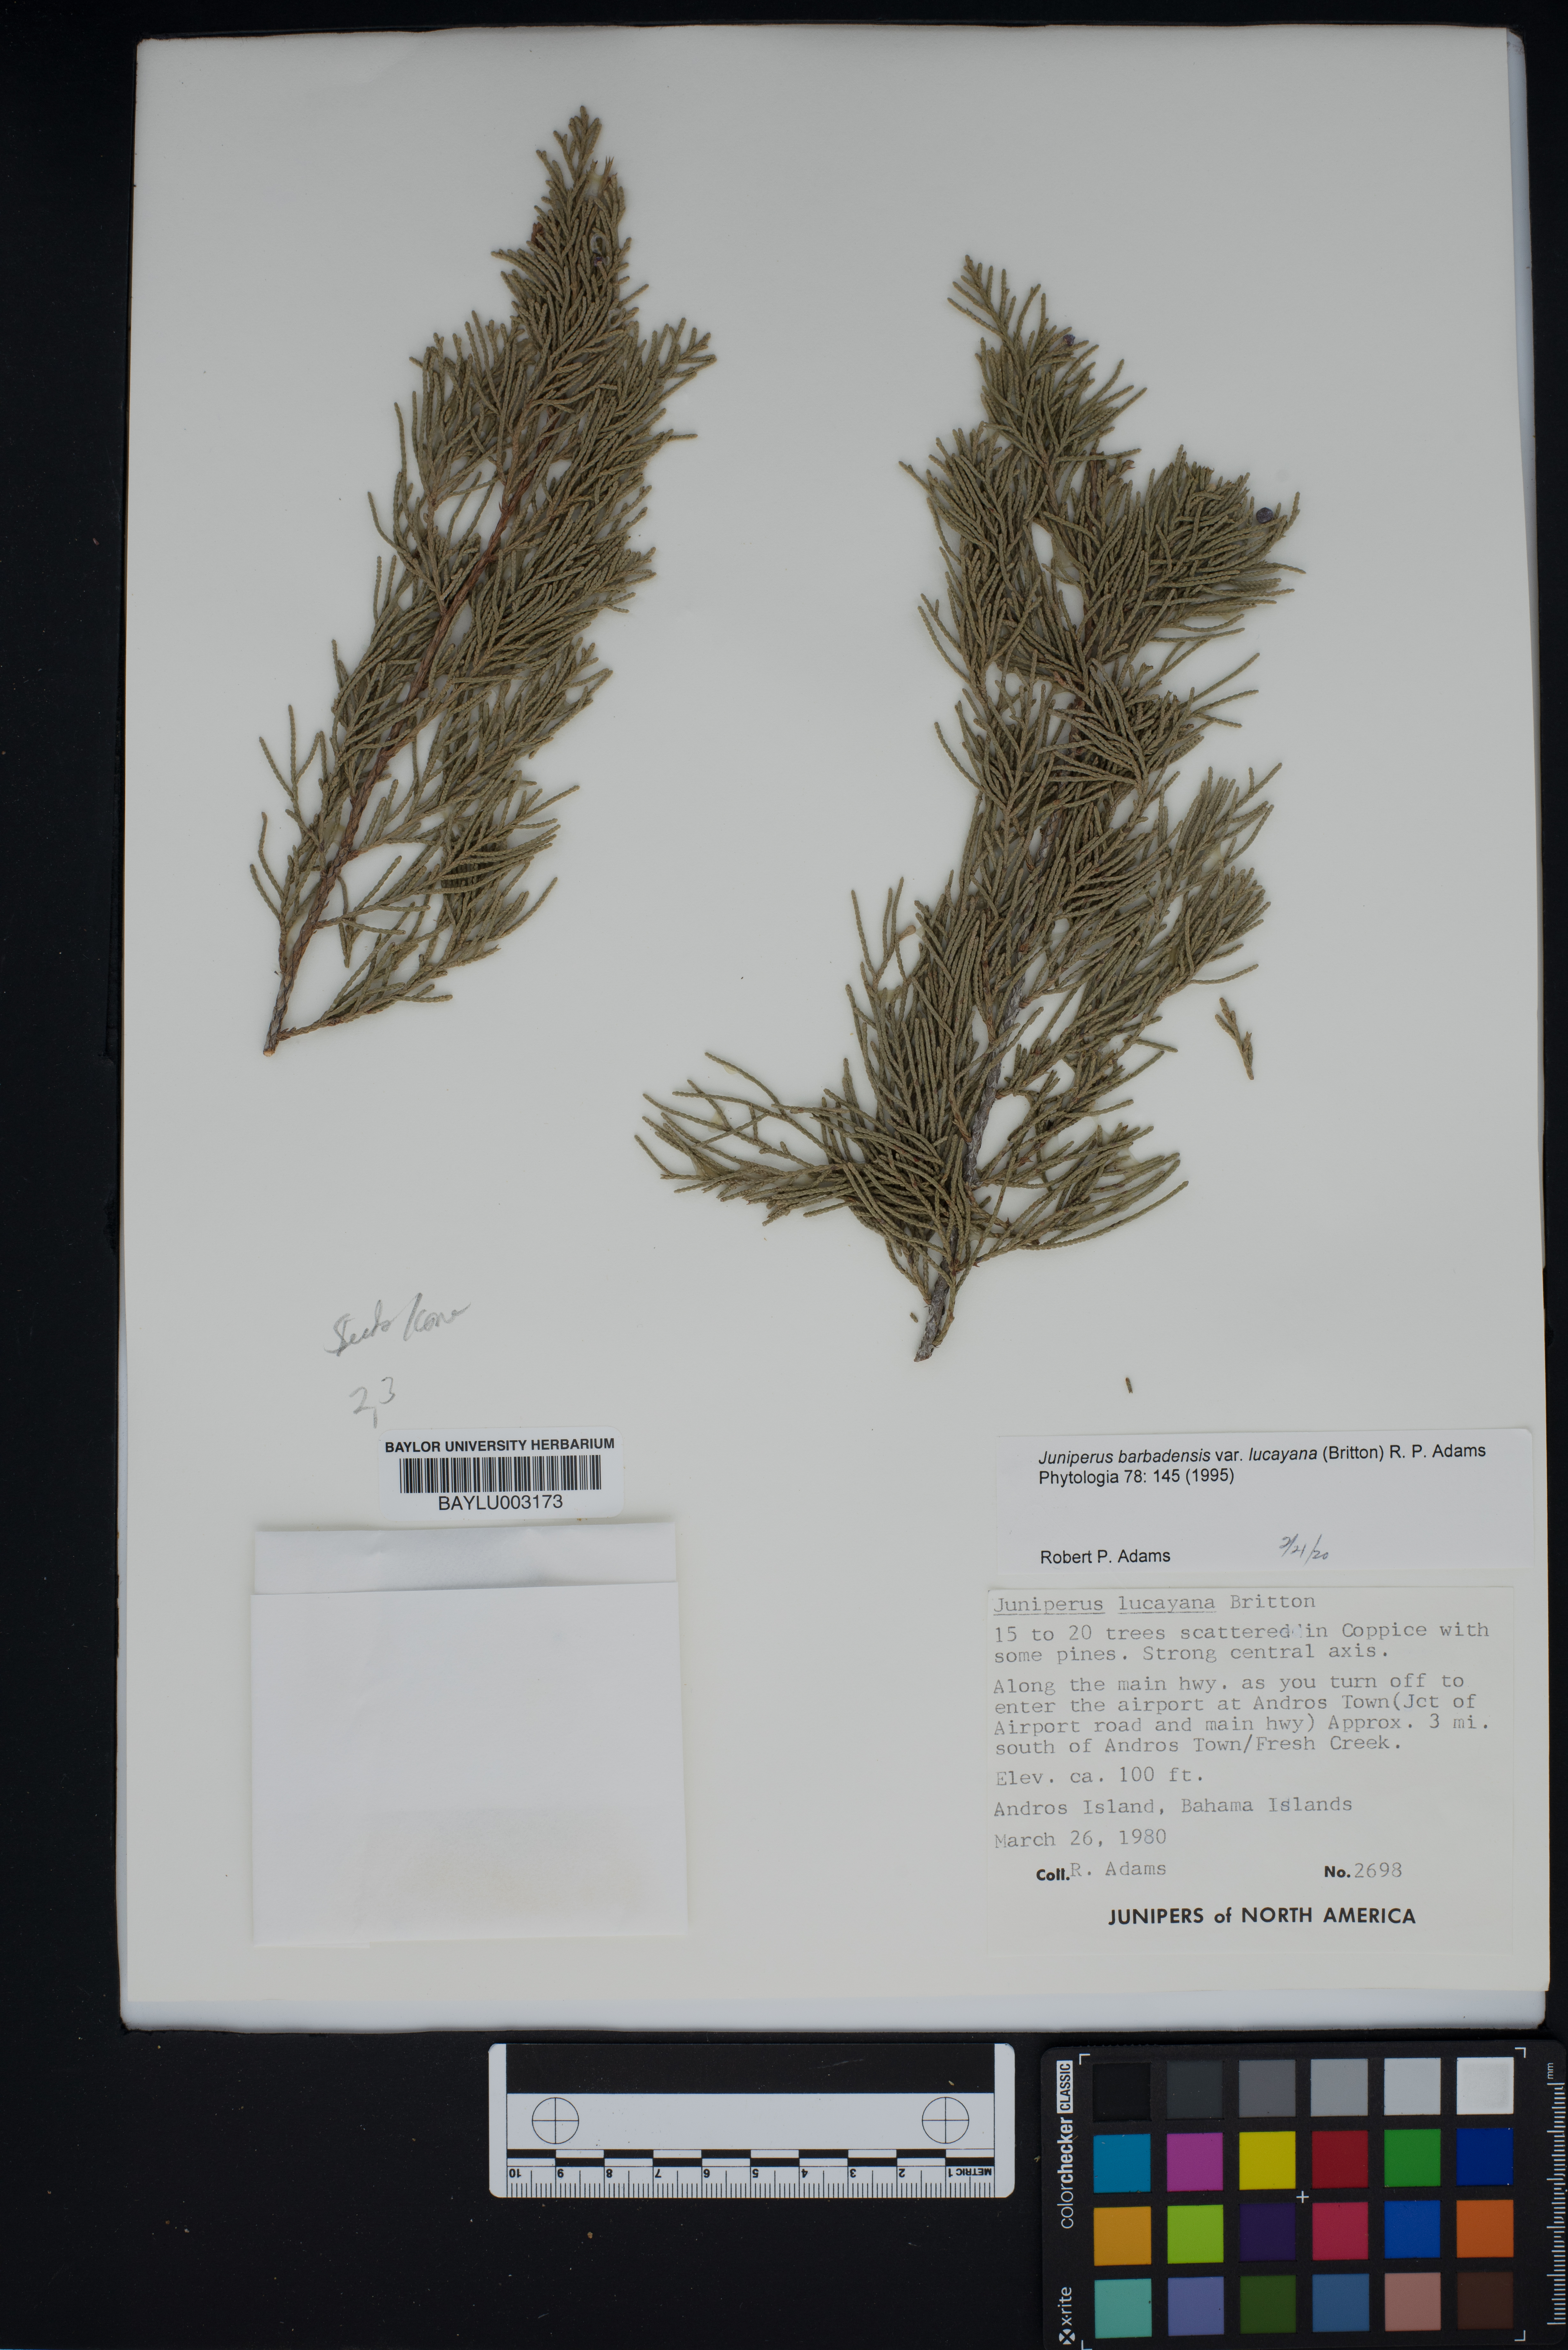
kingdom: Plantae
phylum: Tracheophyta
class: Pinopsida
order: Pinales
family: Cupressaceae
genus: Juniperus
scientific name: Juniperus barbadensis
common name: West indies juniper
